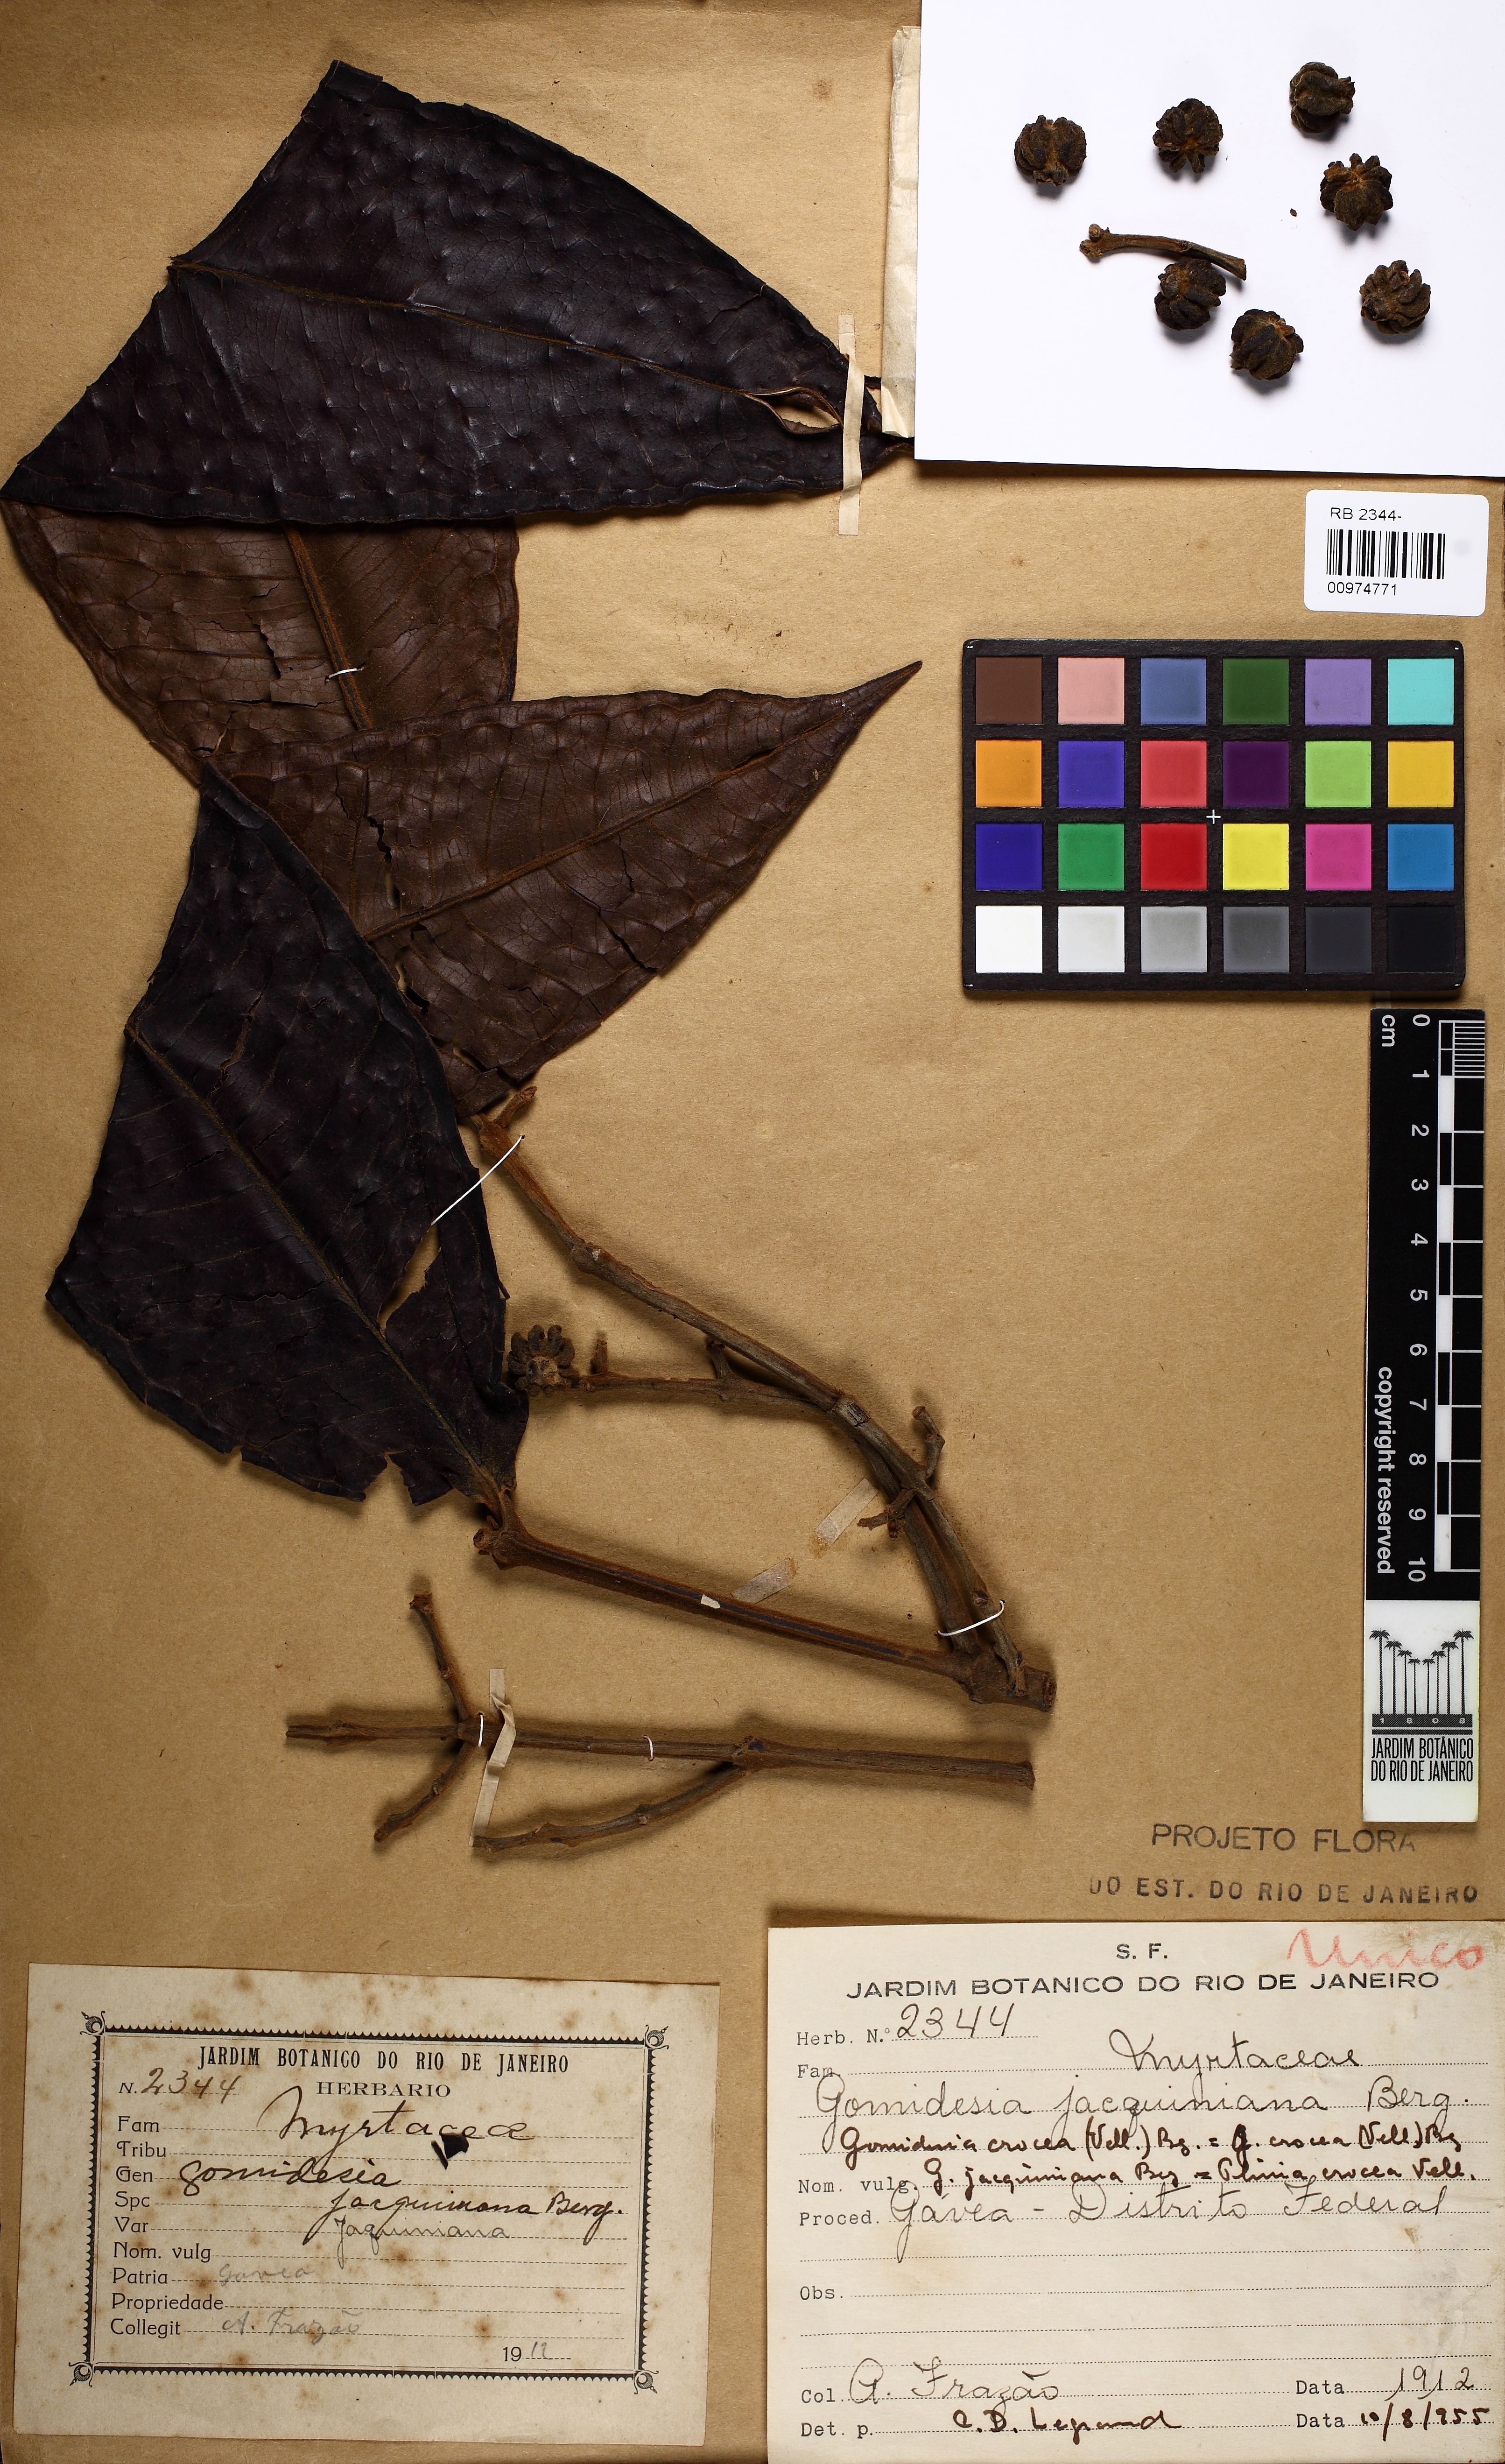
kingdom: Plantae
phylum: Tracheophyta
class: Magnoliopsida
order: Myrtales
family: Myrtaceae
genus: Myrcia
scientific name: Myrcia amplexicaulis
